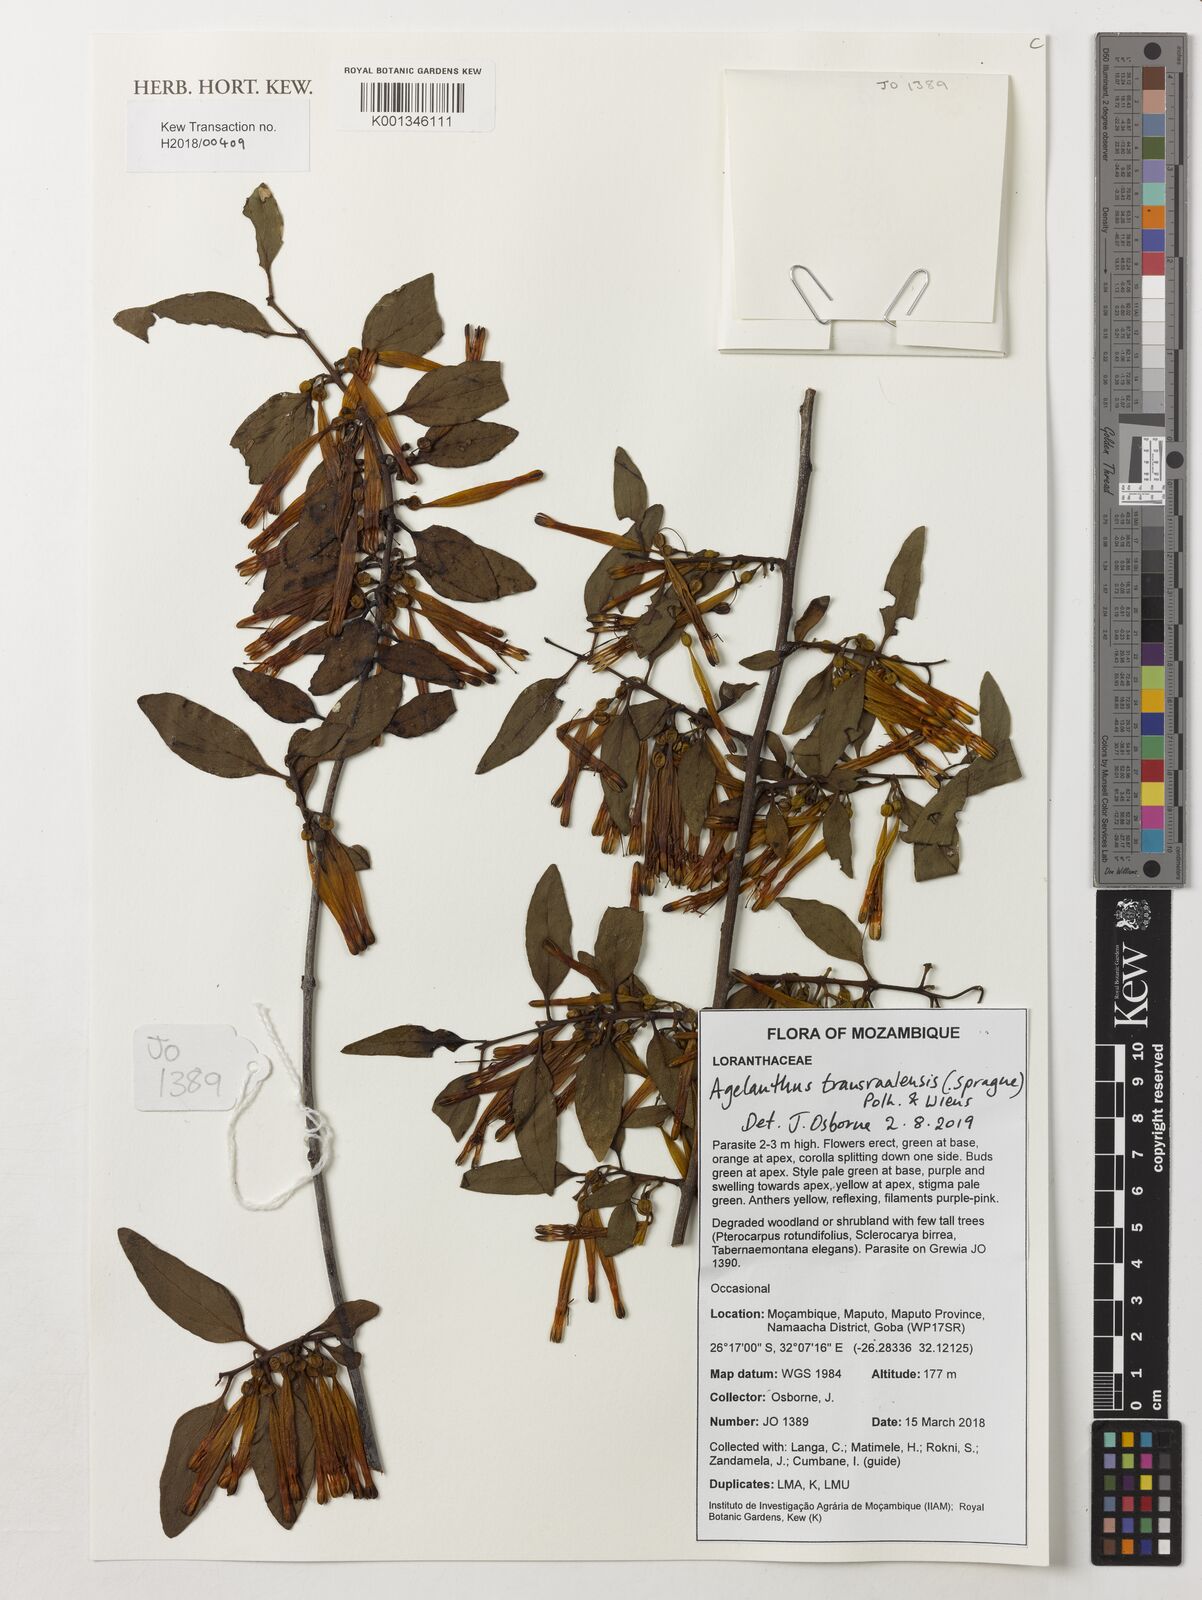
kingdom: Plantae
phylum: Tracheophyta
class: Magnoliopsida
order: Santalales
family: Loranthaceae
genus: Agelanthus
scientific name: Agelanthus transvaalensis
